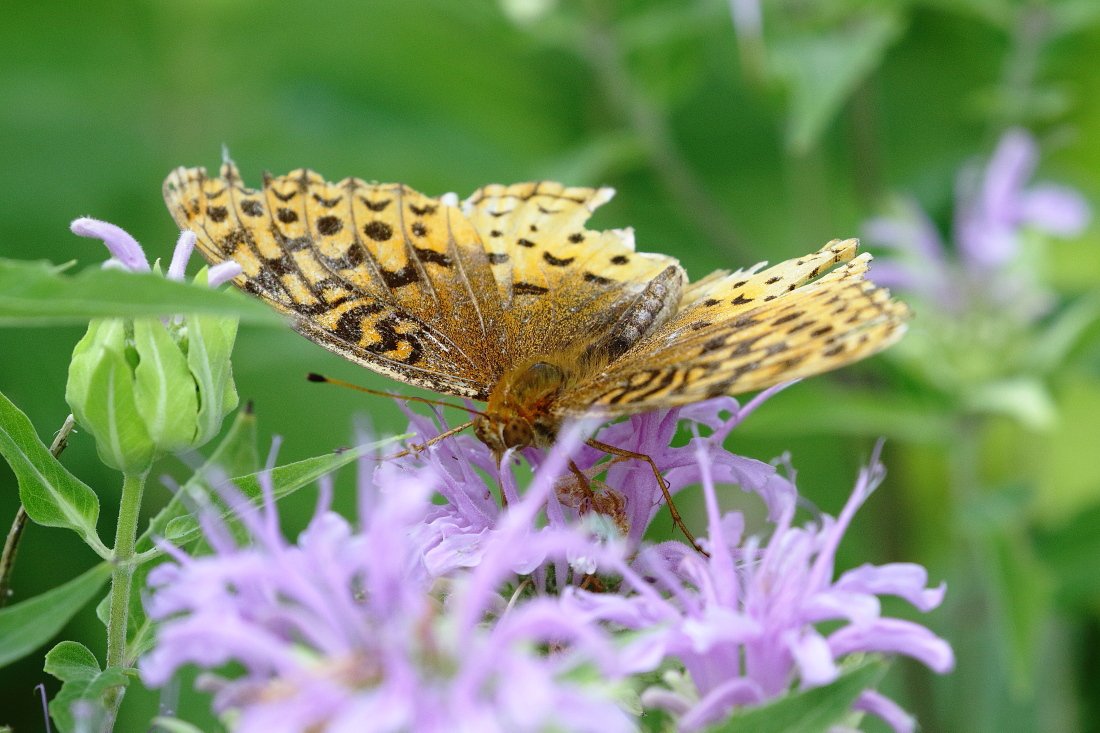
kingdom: Animalia
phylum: Arthropoda
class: Insecta
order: Lepidoptera
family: Nymphalidae
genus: Speyeria
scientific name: Speyeria cybele
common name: Great Spangled Fritillary
